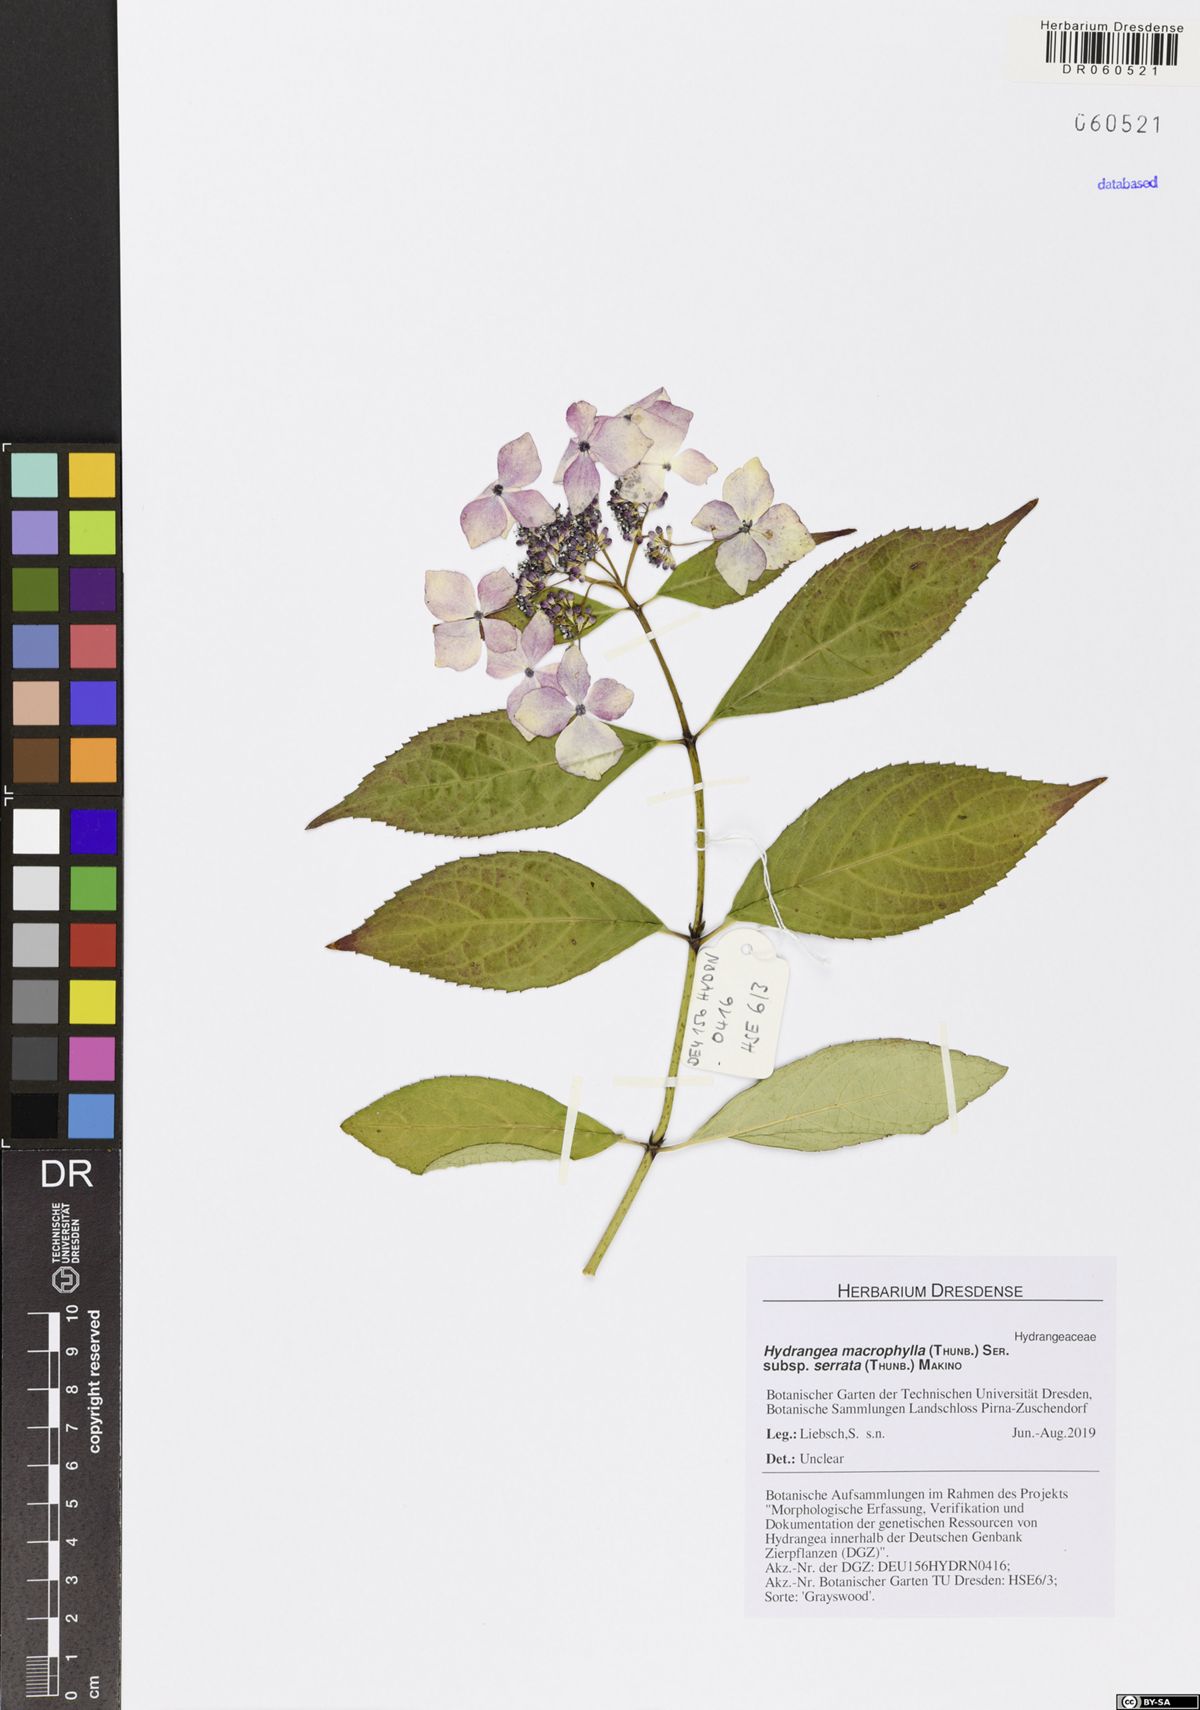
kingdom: Plantae
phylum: Tracheophyta
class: Magnoliopsida
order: Cornales
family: Hydrangeaceae
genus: Hydrangea
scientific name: Hydrangea serrata
